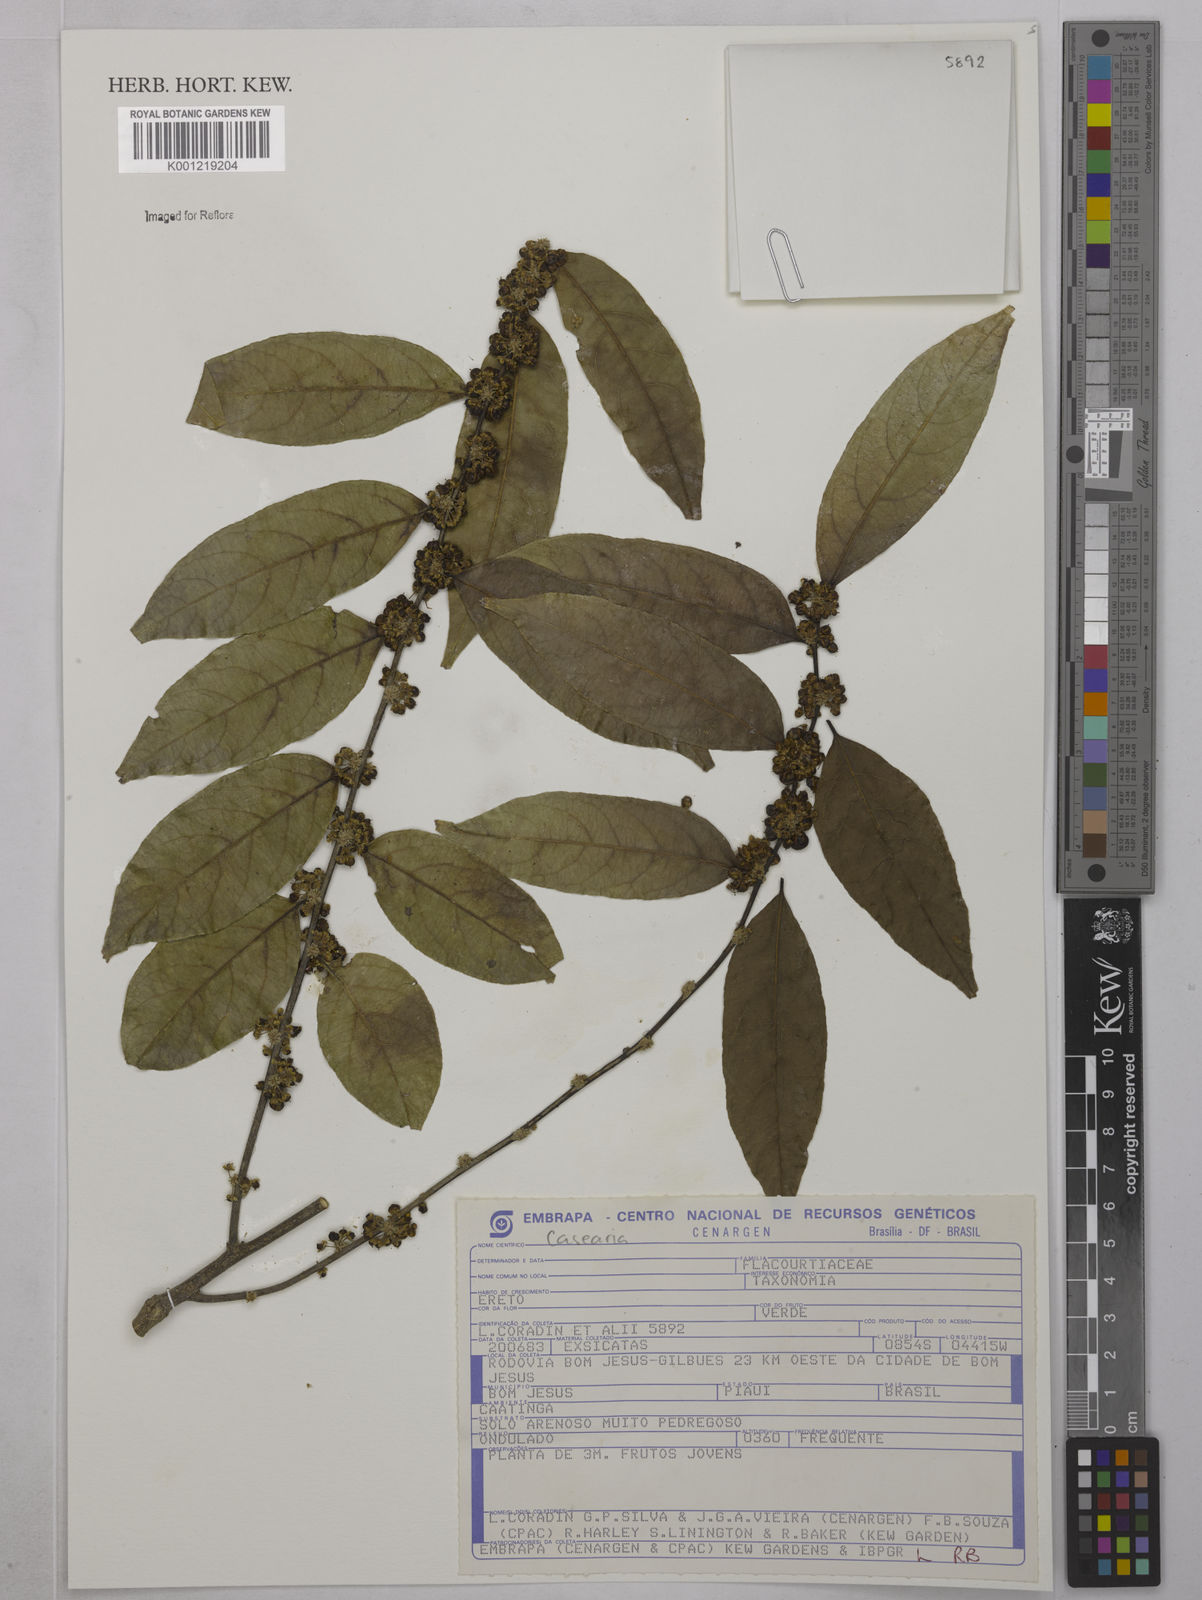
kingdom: Plantae
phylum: Tracheophyta
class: Magnoliopsida
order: Malpighiales
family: Salicaceae
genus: Casearia
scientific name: Casearia
